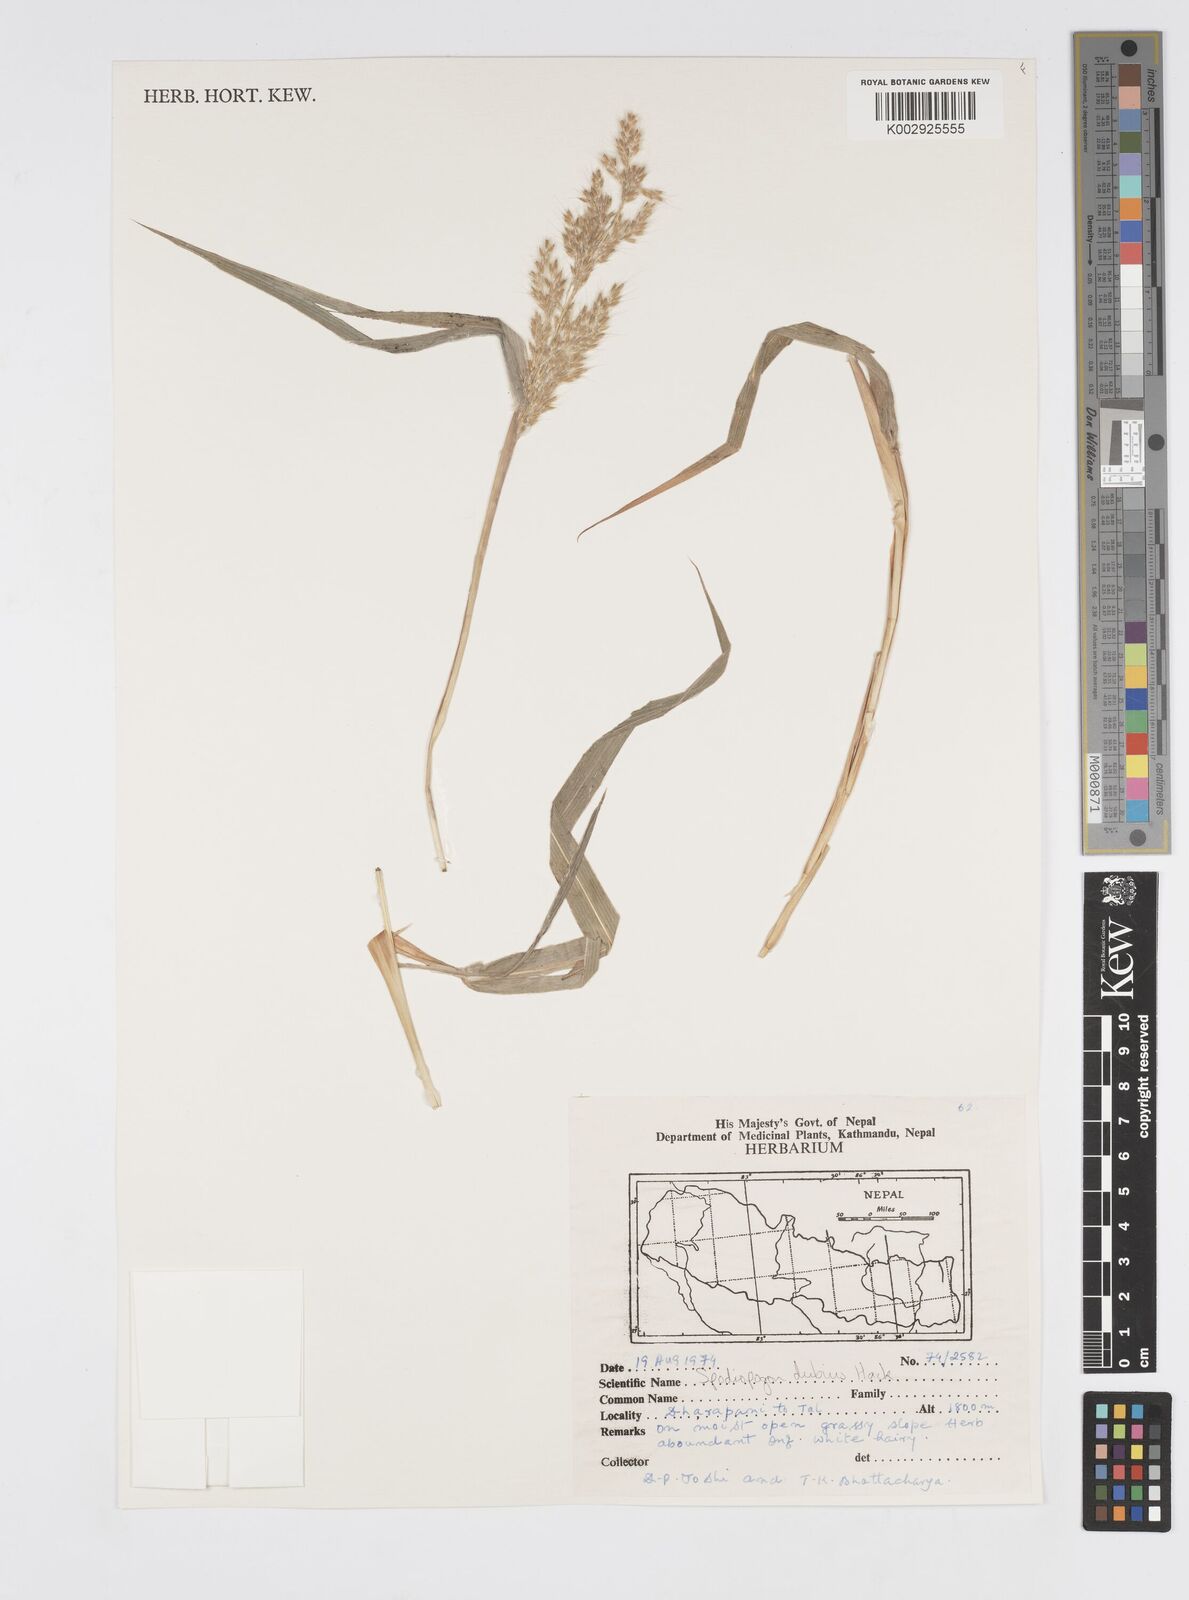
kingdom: Plantae
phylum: Tracheophyta
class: Liliopsida
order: Poales
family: Poaceae
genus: Spodiopogon
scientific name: Spodiopogon dubius
